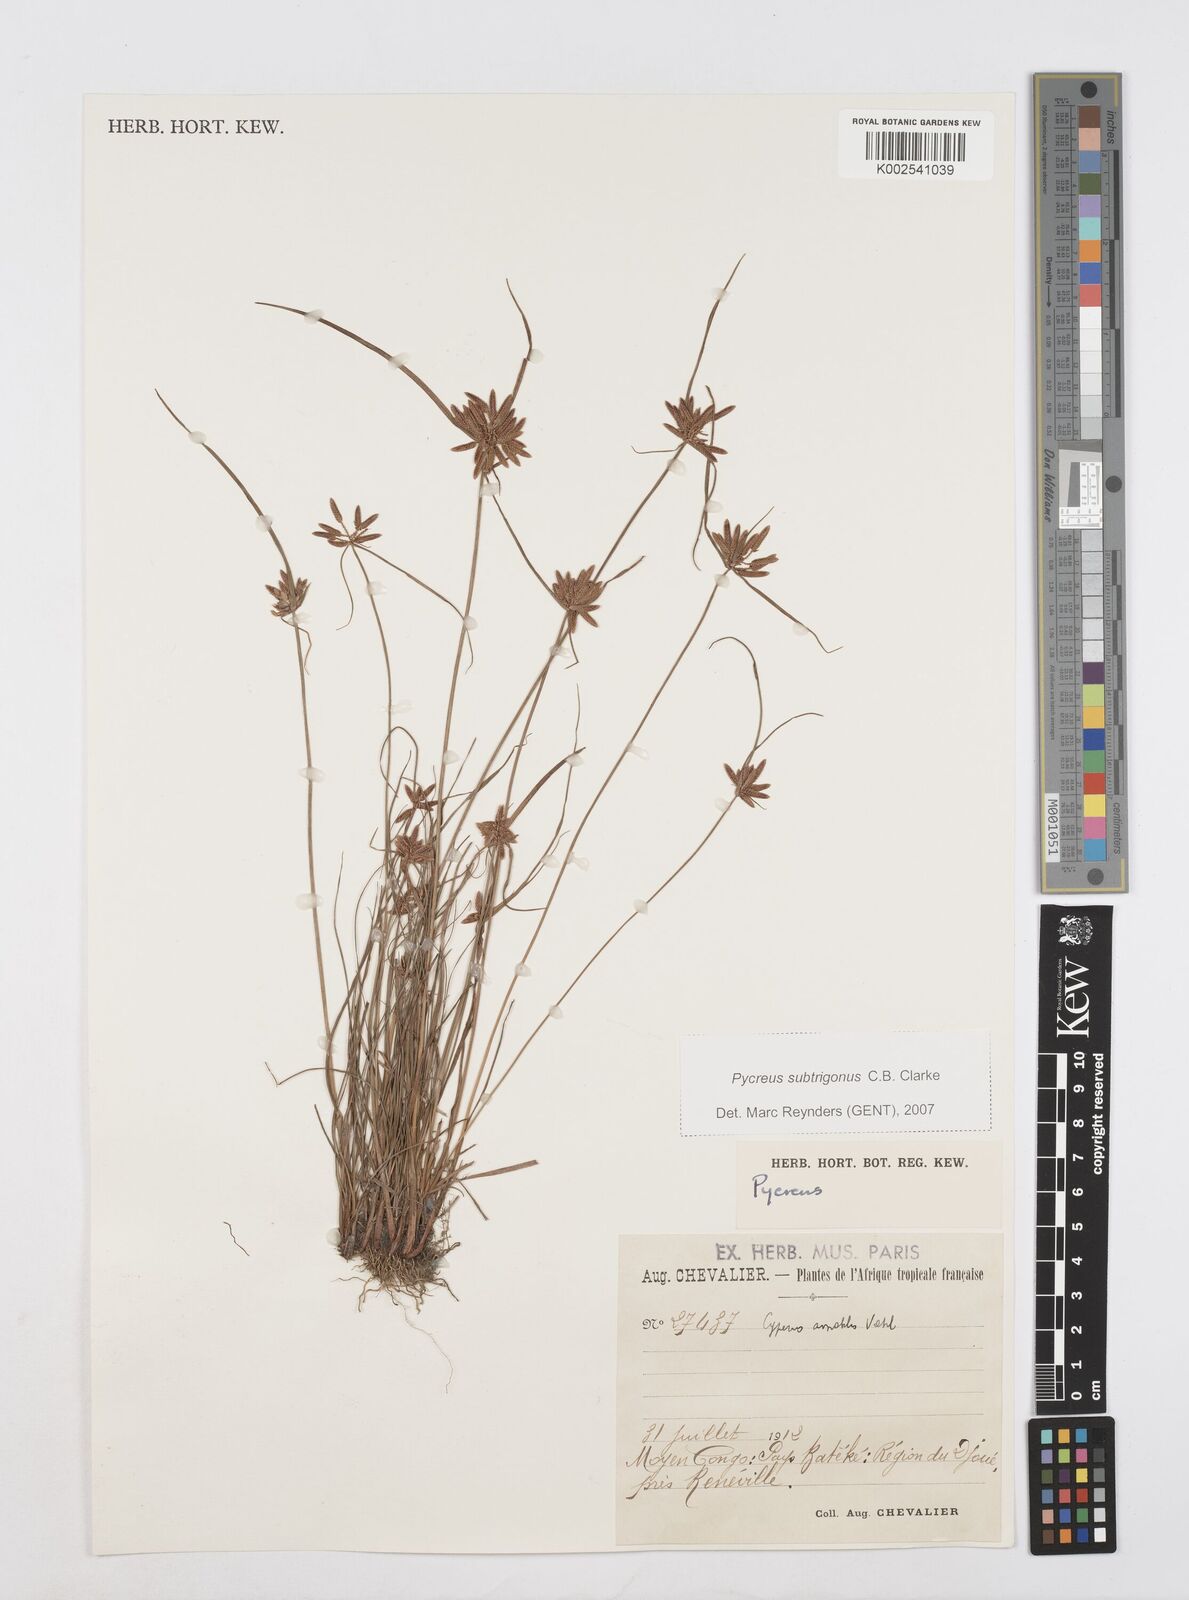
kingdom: Plantae
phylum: Tracheophyta
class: Liliopsida
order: Poales
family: Cyperaceae
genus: Cyperus
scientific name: Cyperus
